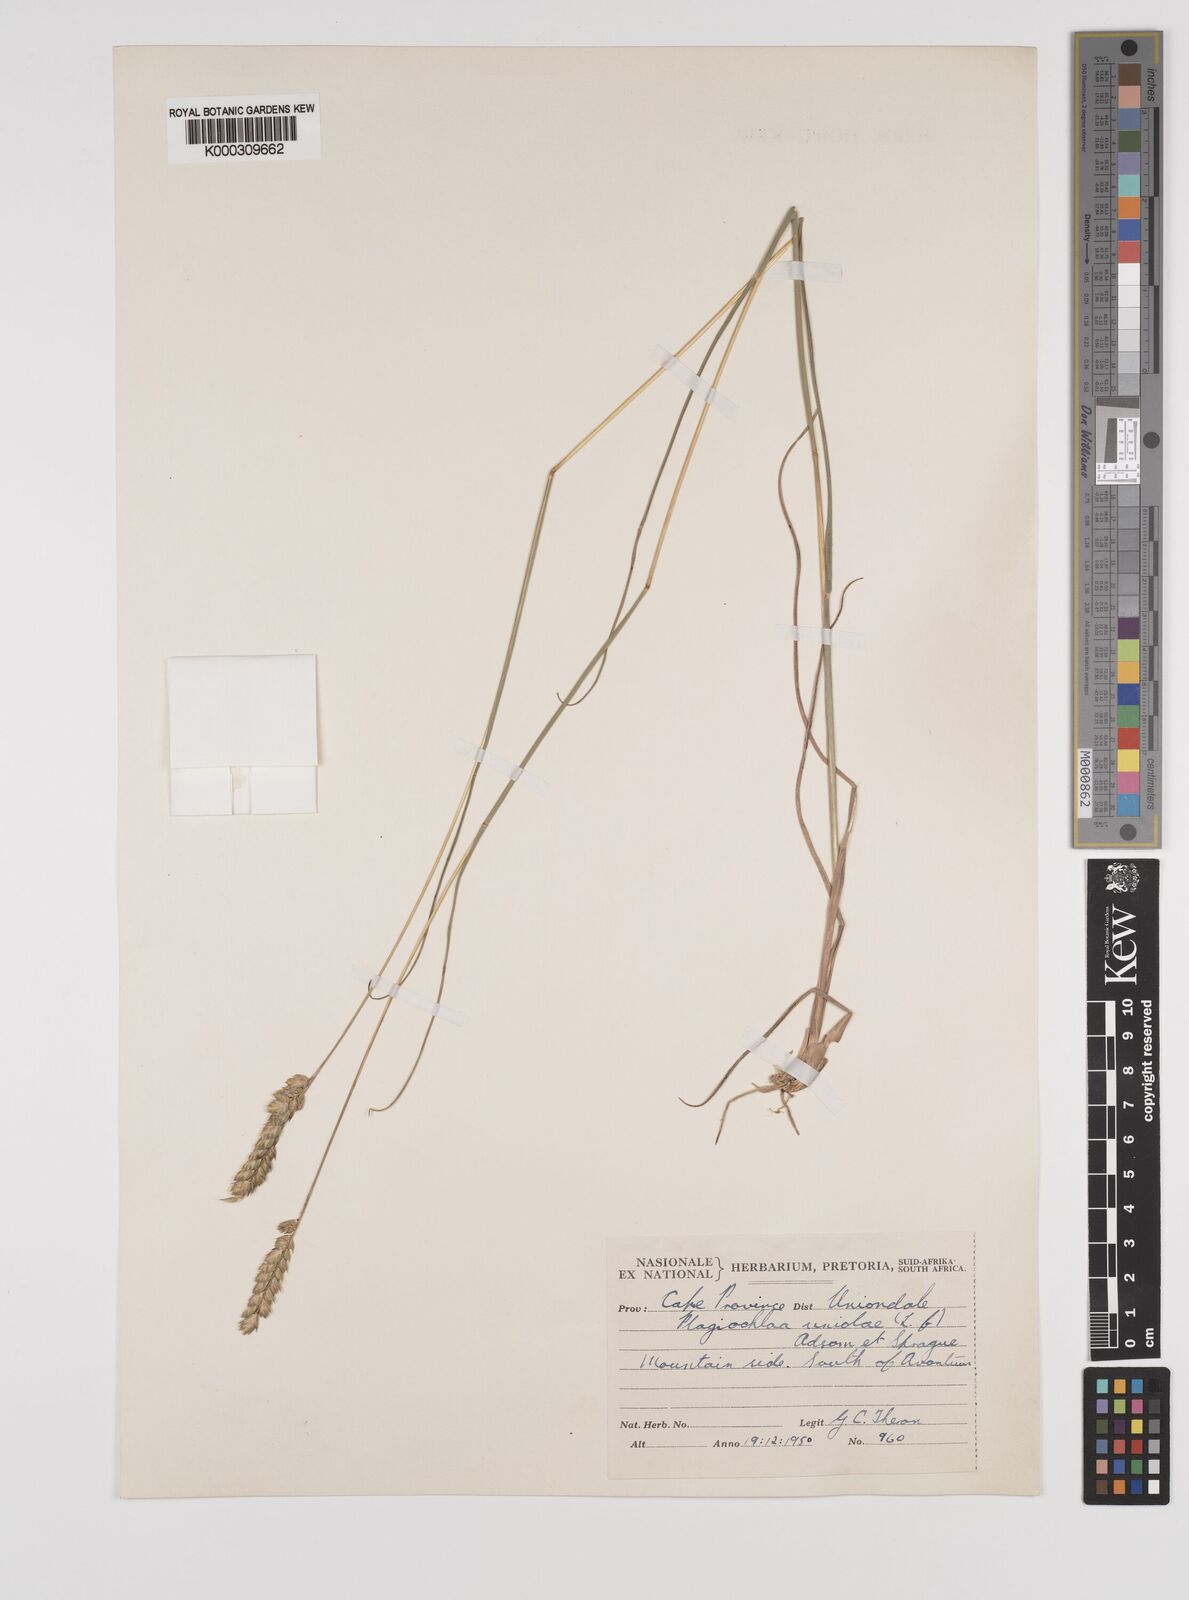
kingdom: Plantae
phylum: Tracheophyta
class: Liliopsida
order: Poales
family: Poaceae
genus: Tribolium
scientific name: Tribolium uniolae
